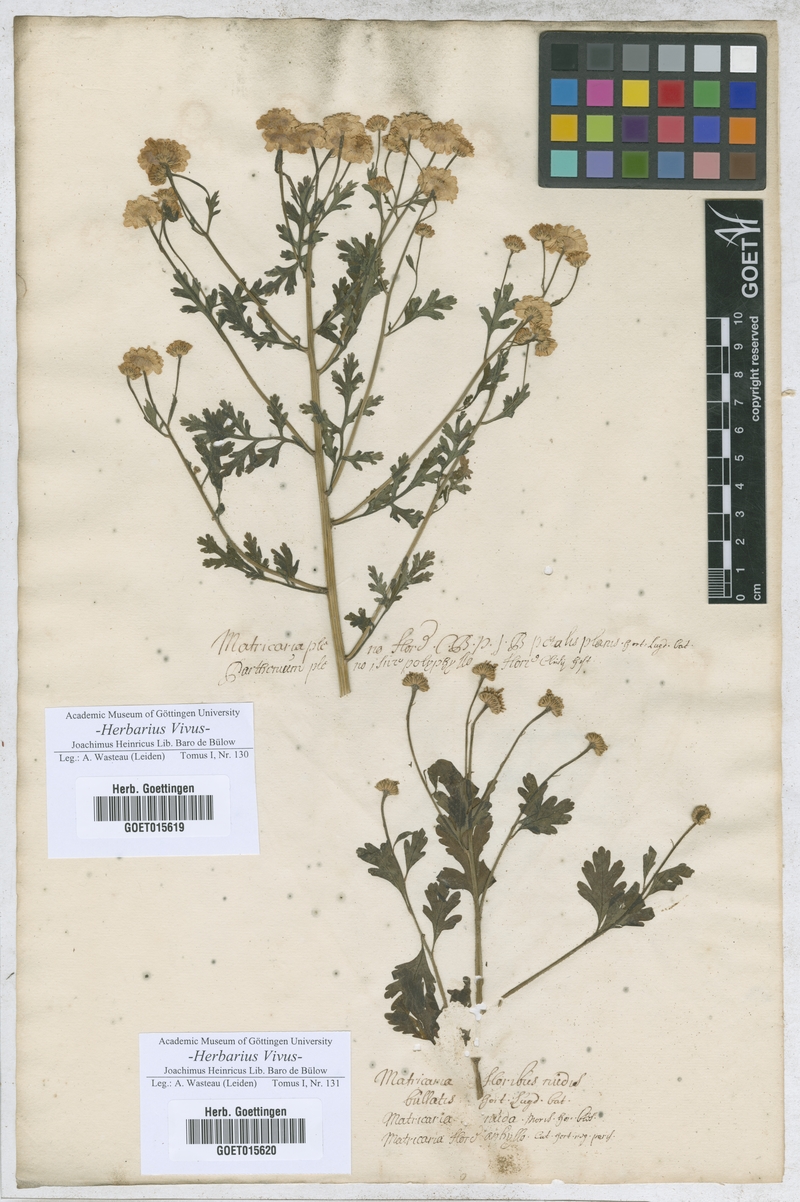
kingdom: Plantae
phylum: Tracheophyta
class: Magnoliopsida
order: Asterales
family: Asteraceae
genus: Matricaria
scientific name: Matricaria
